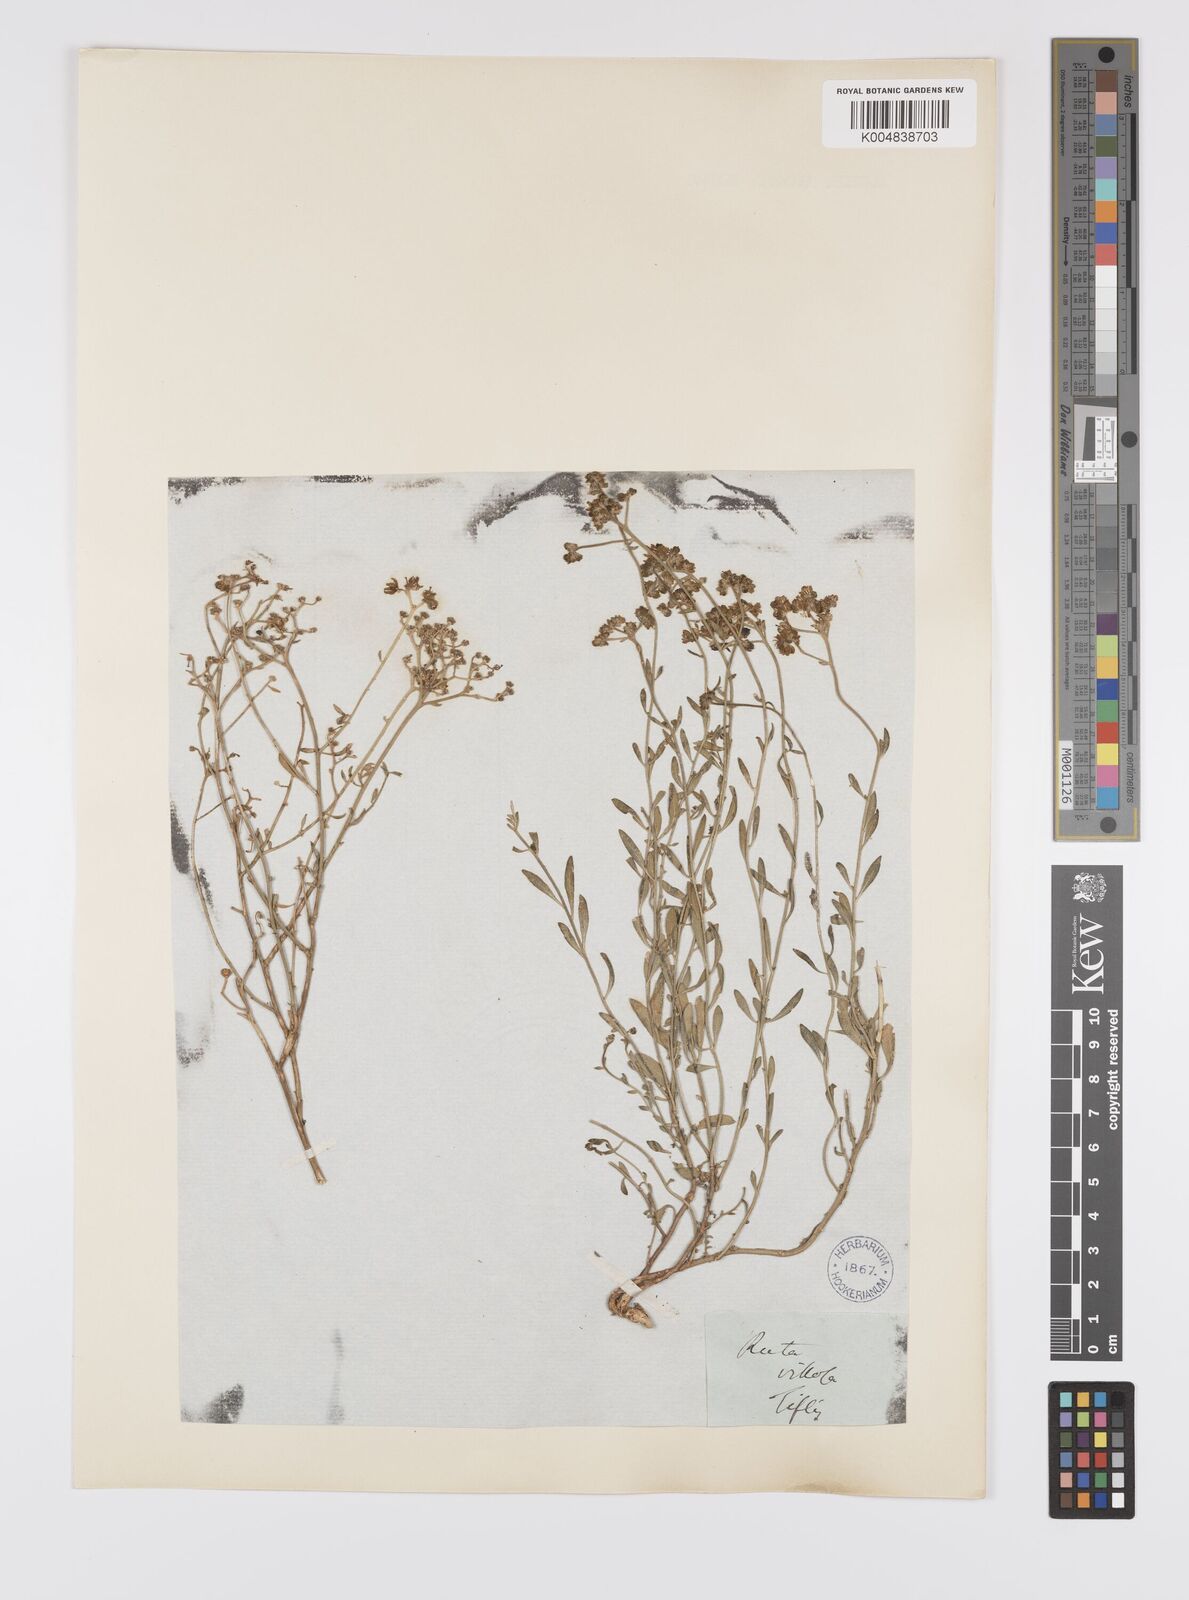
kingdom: Plantae
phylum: Tracheophyta
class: Magnoliopsida
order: Sapindales
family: Rutaceae
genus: Haplophyllum
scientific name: Haplophyllum villosum
